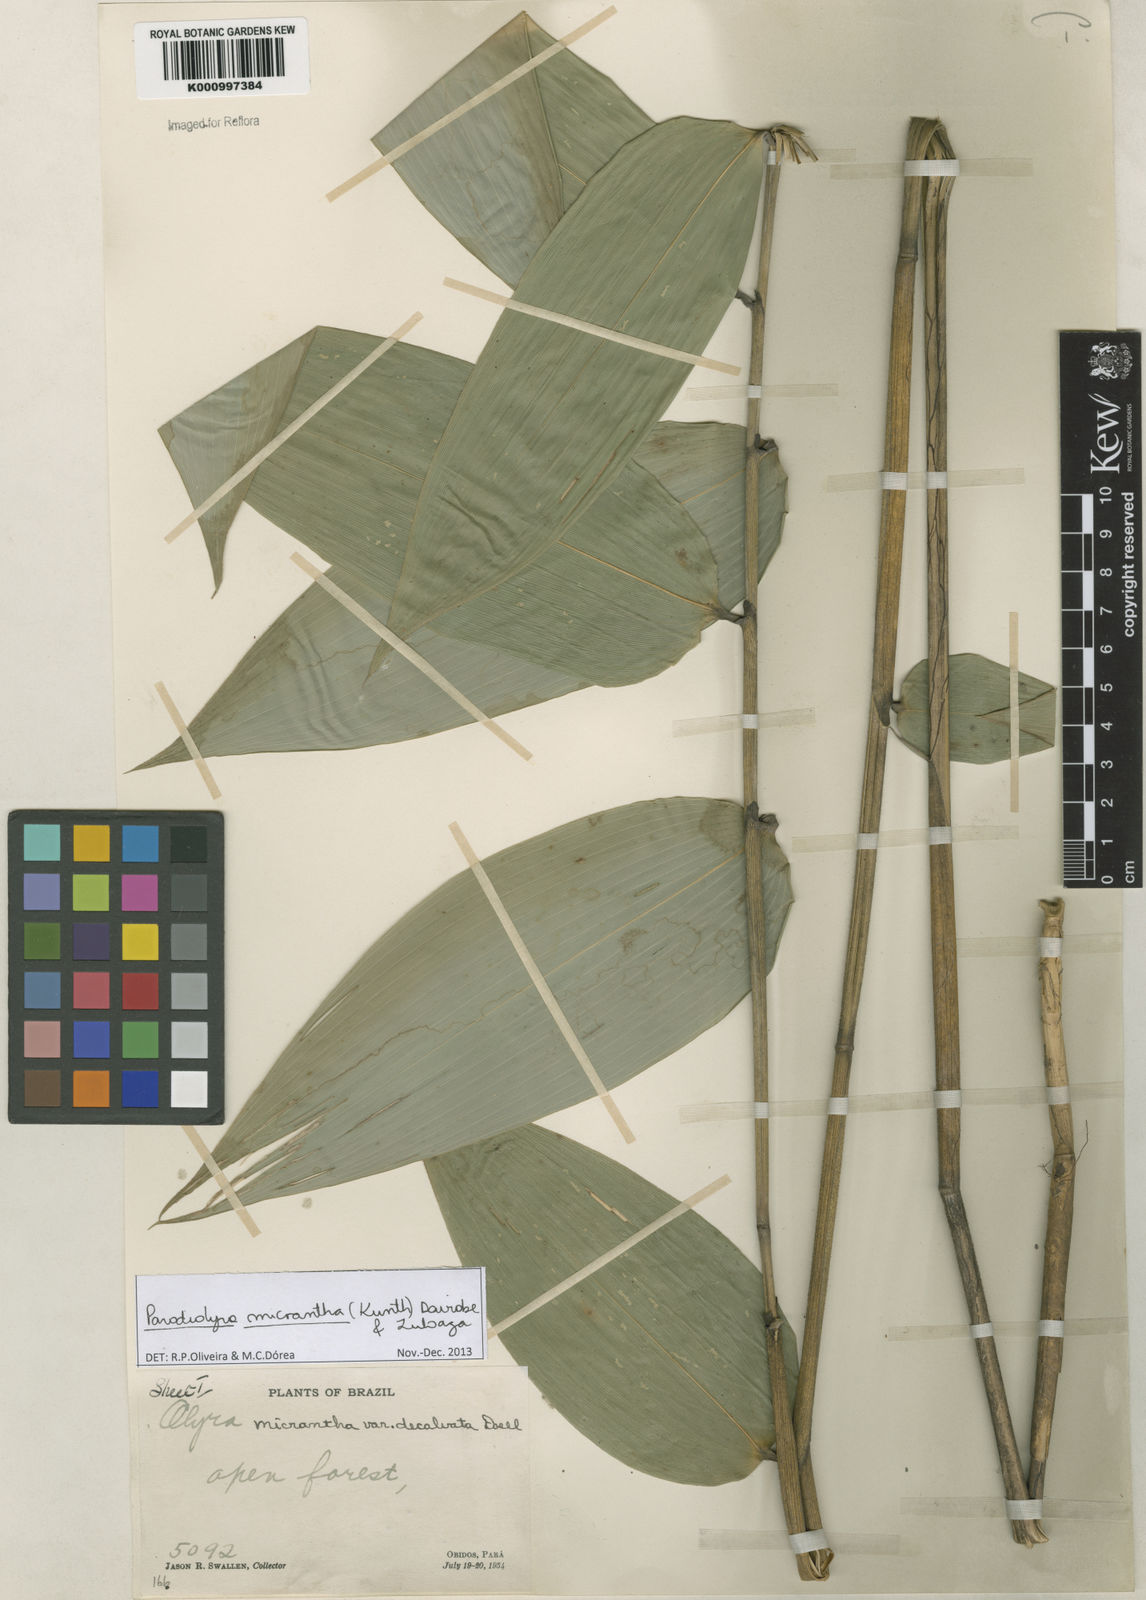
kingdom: Plantae
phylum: Tracheophyta
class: Liliopsida
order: Poales
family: Poaceae
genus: Taquara
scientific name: Taquara micrantha
